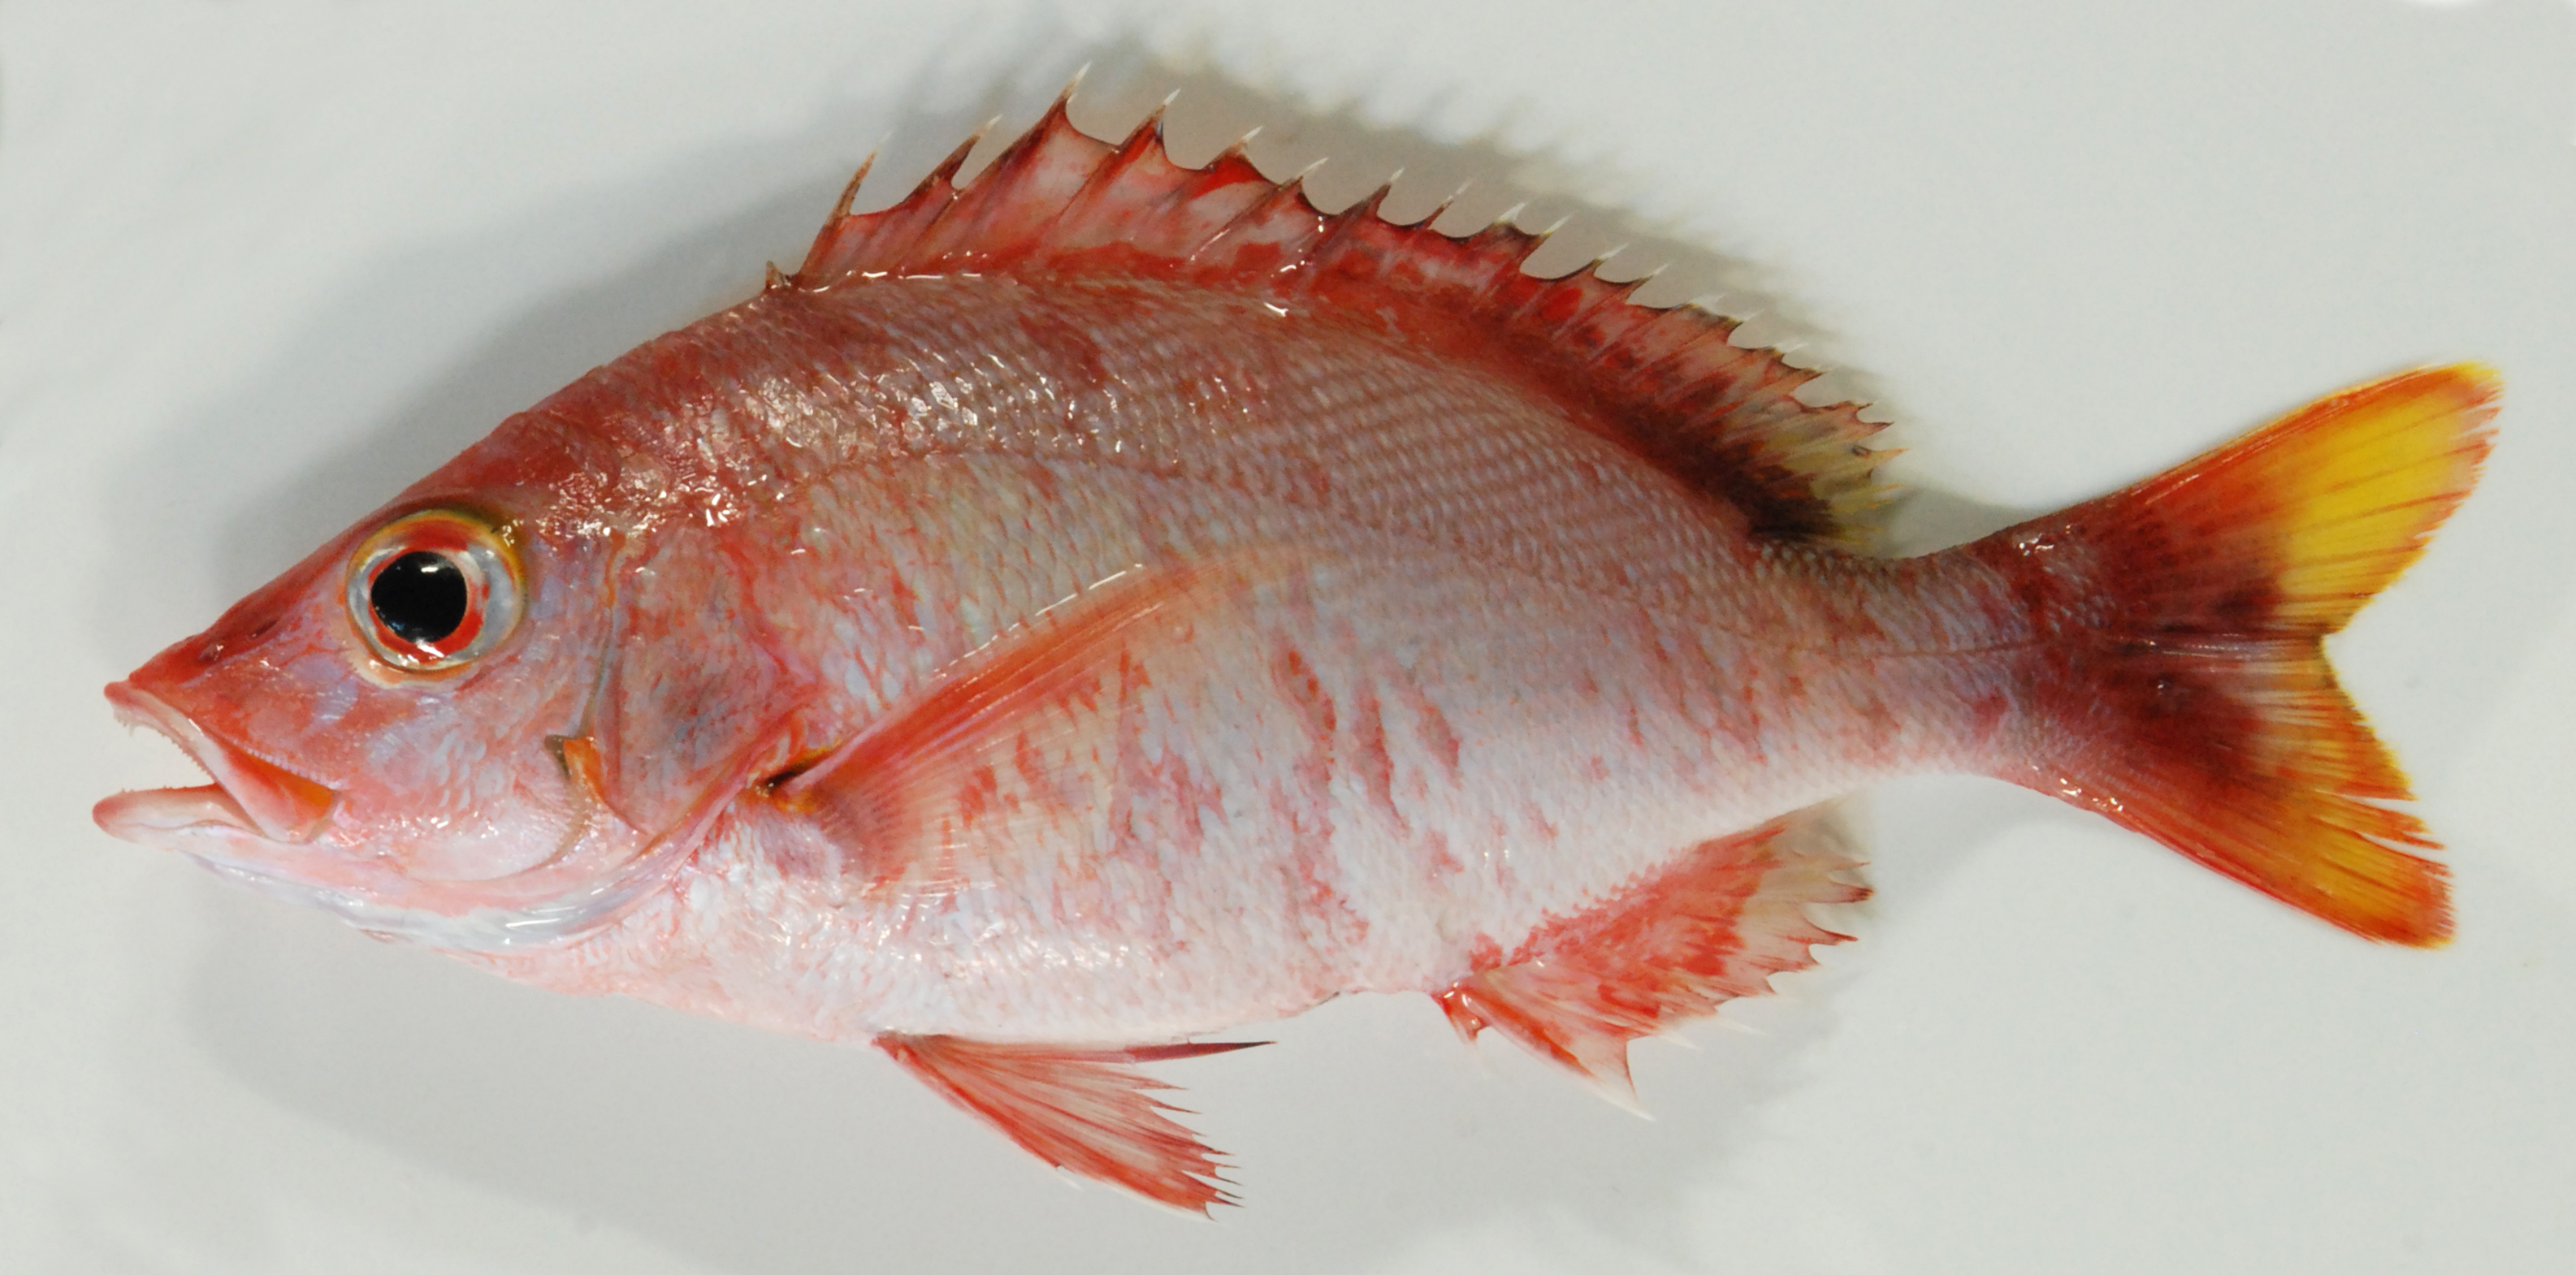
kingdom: Animalia
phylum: Chordata
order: Perciformes
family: Lutjanidae
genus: Lutjanus
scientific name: Lutjanus gibbus
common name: Humpback snapper
